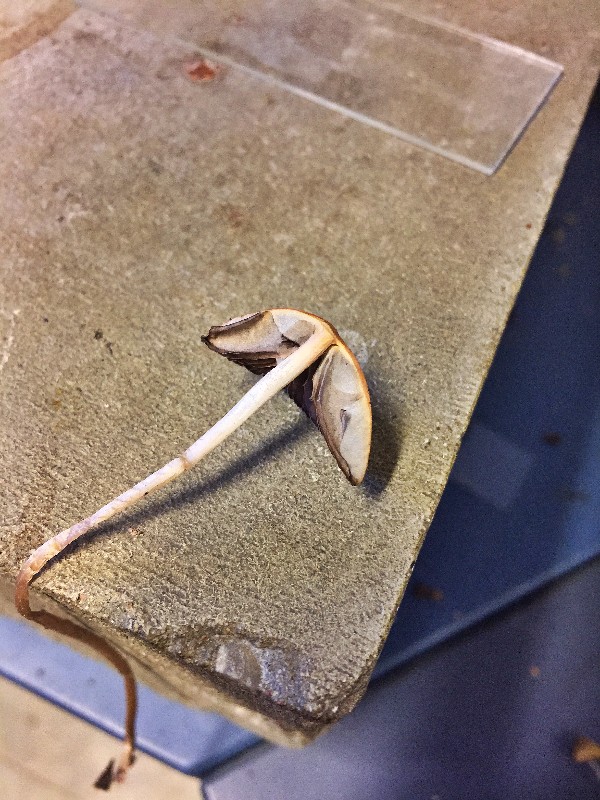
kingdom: Fungi
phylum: Basidiomycota
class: Agaricomycetes
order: Agaricales
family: Psathyrellaceae
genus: Psathyrella
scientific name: Psathyrella corrugis
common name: rødægget mørkhat
